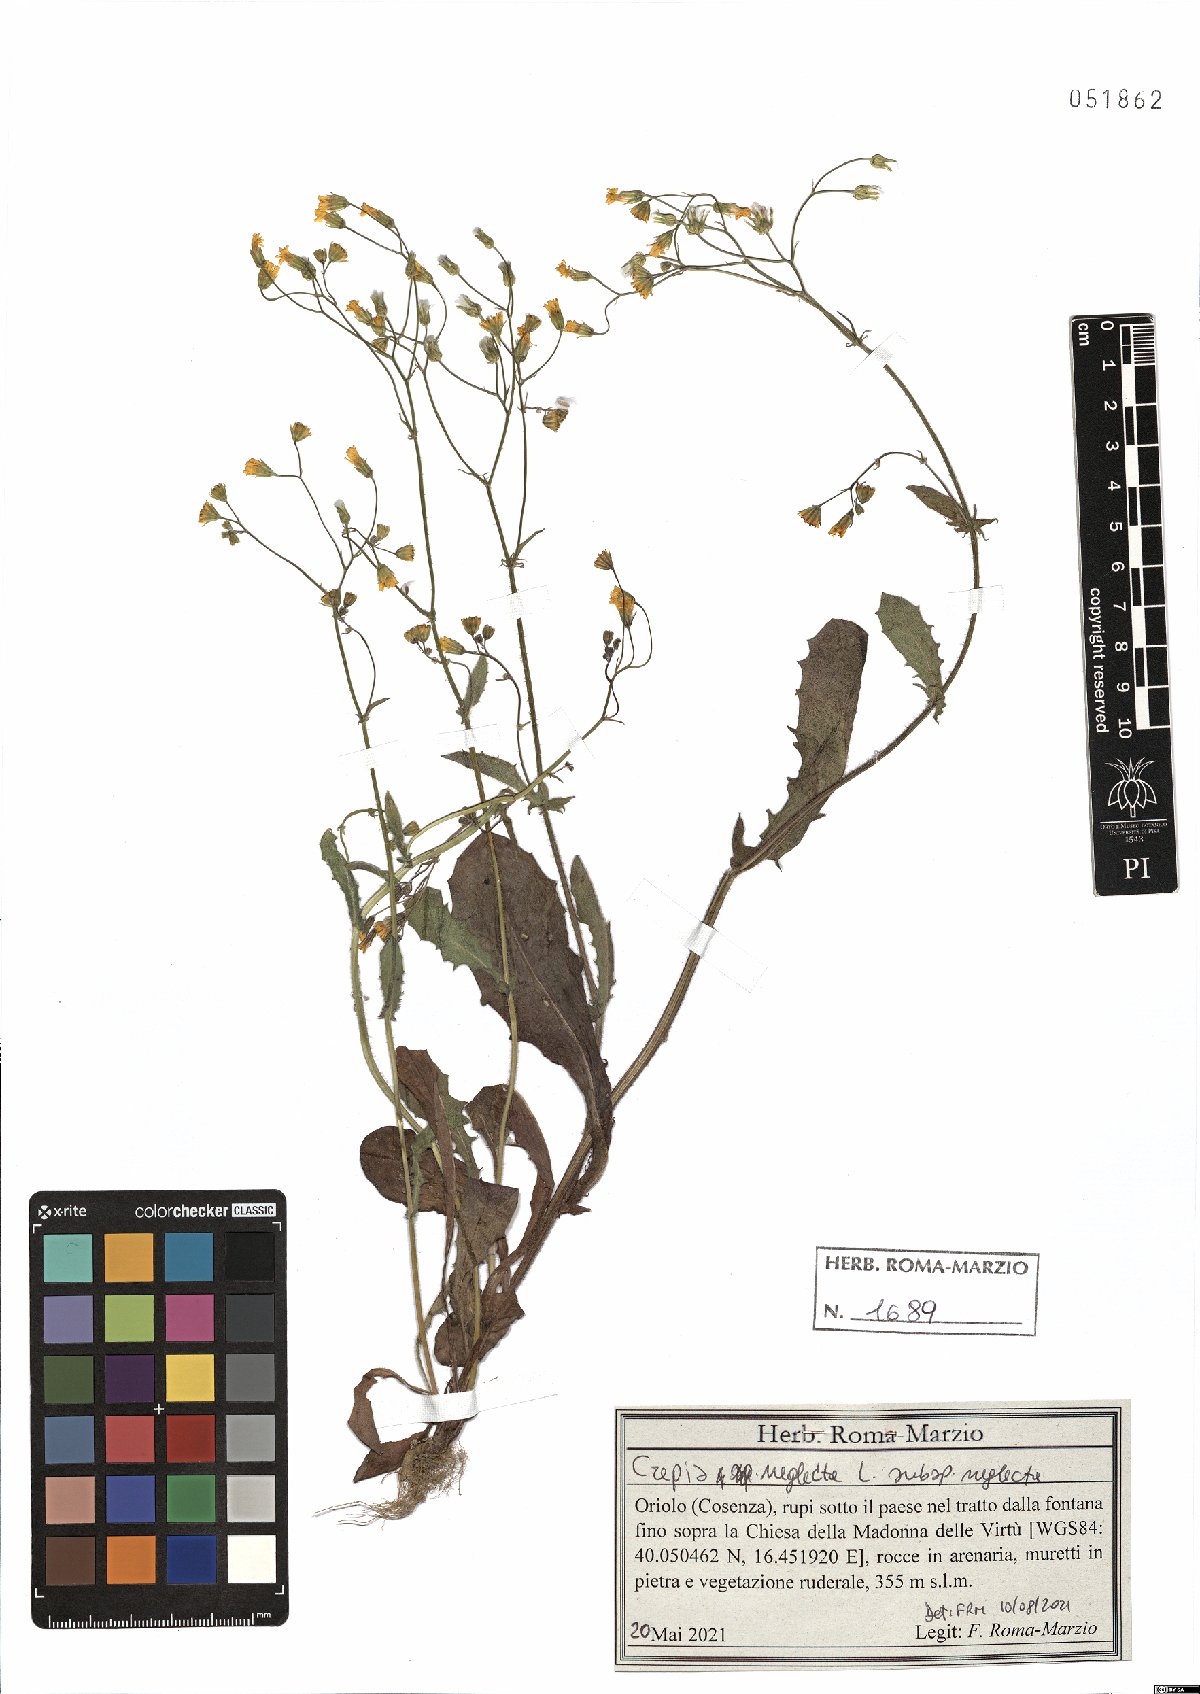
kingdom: Plantae
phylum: Tracheophyta
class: Magnoliopsida
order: Asterales
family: Asteraceae
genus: Crepis
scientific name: Crepis neglecta
